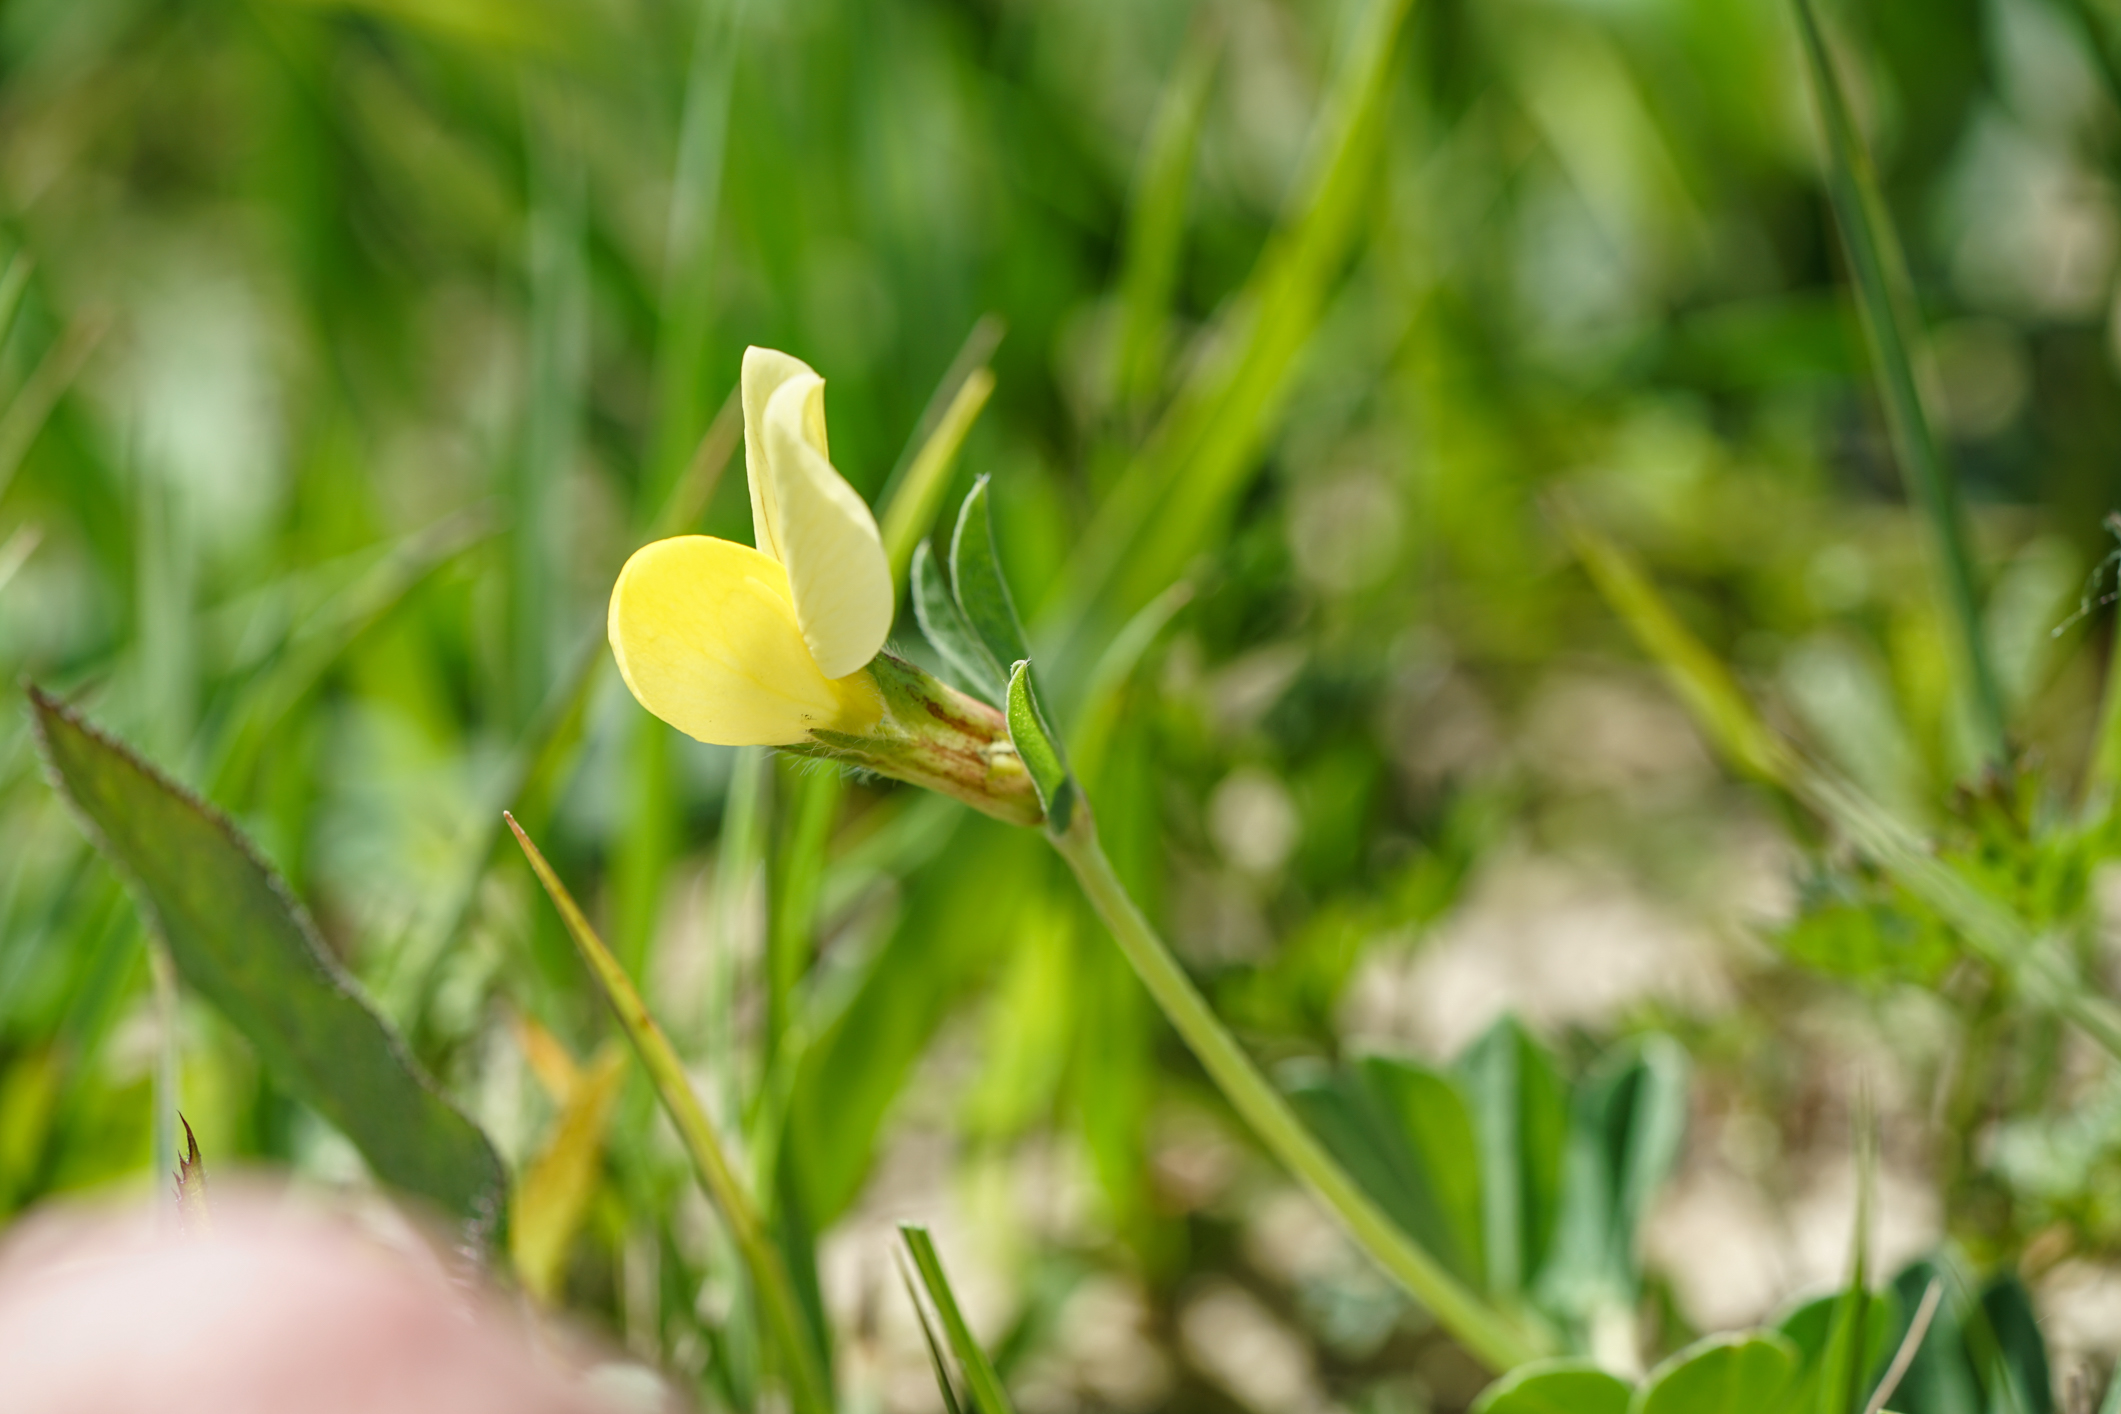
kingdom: Plantae
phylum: Tracheophyta
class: Magnoliopsida
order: Fabales
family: Fabaceae
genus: Lotus
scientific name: Lotus maritimus
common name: Dragon's-teeth
